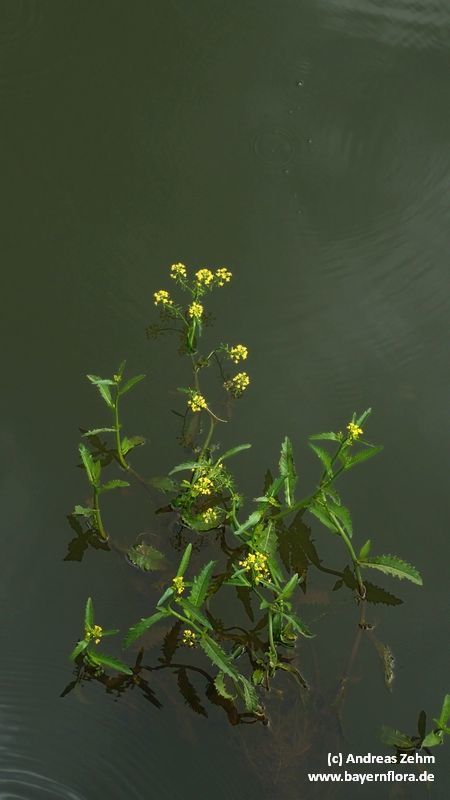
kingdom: Plantae
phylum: Tracheophyta
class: Magnoliopsida
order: Brassicales
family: Brassicaceae
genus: Rorippa
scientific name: Rorippa amphibia
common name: Great yellow-cress
